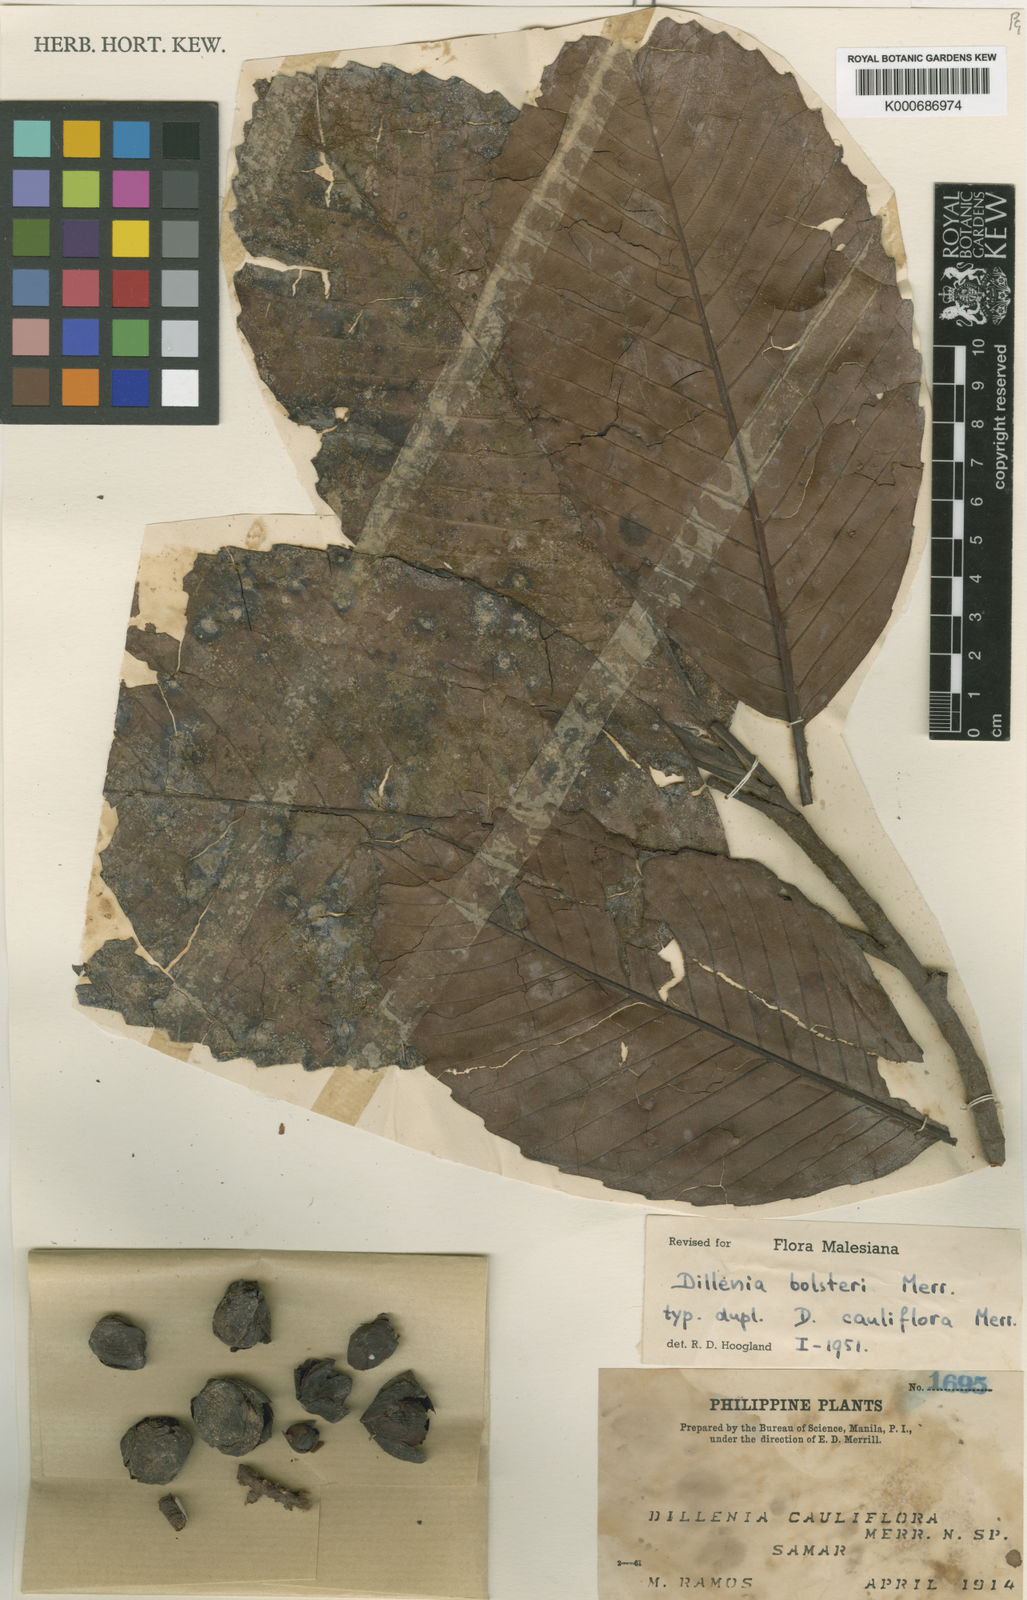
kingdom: Plantae
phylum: Tracheophyta
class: Magnoliopsida
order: Dilleniales
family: Dilleniaceae
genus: Dillenia
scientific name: Dillenia philippinensis
